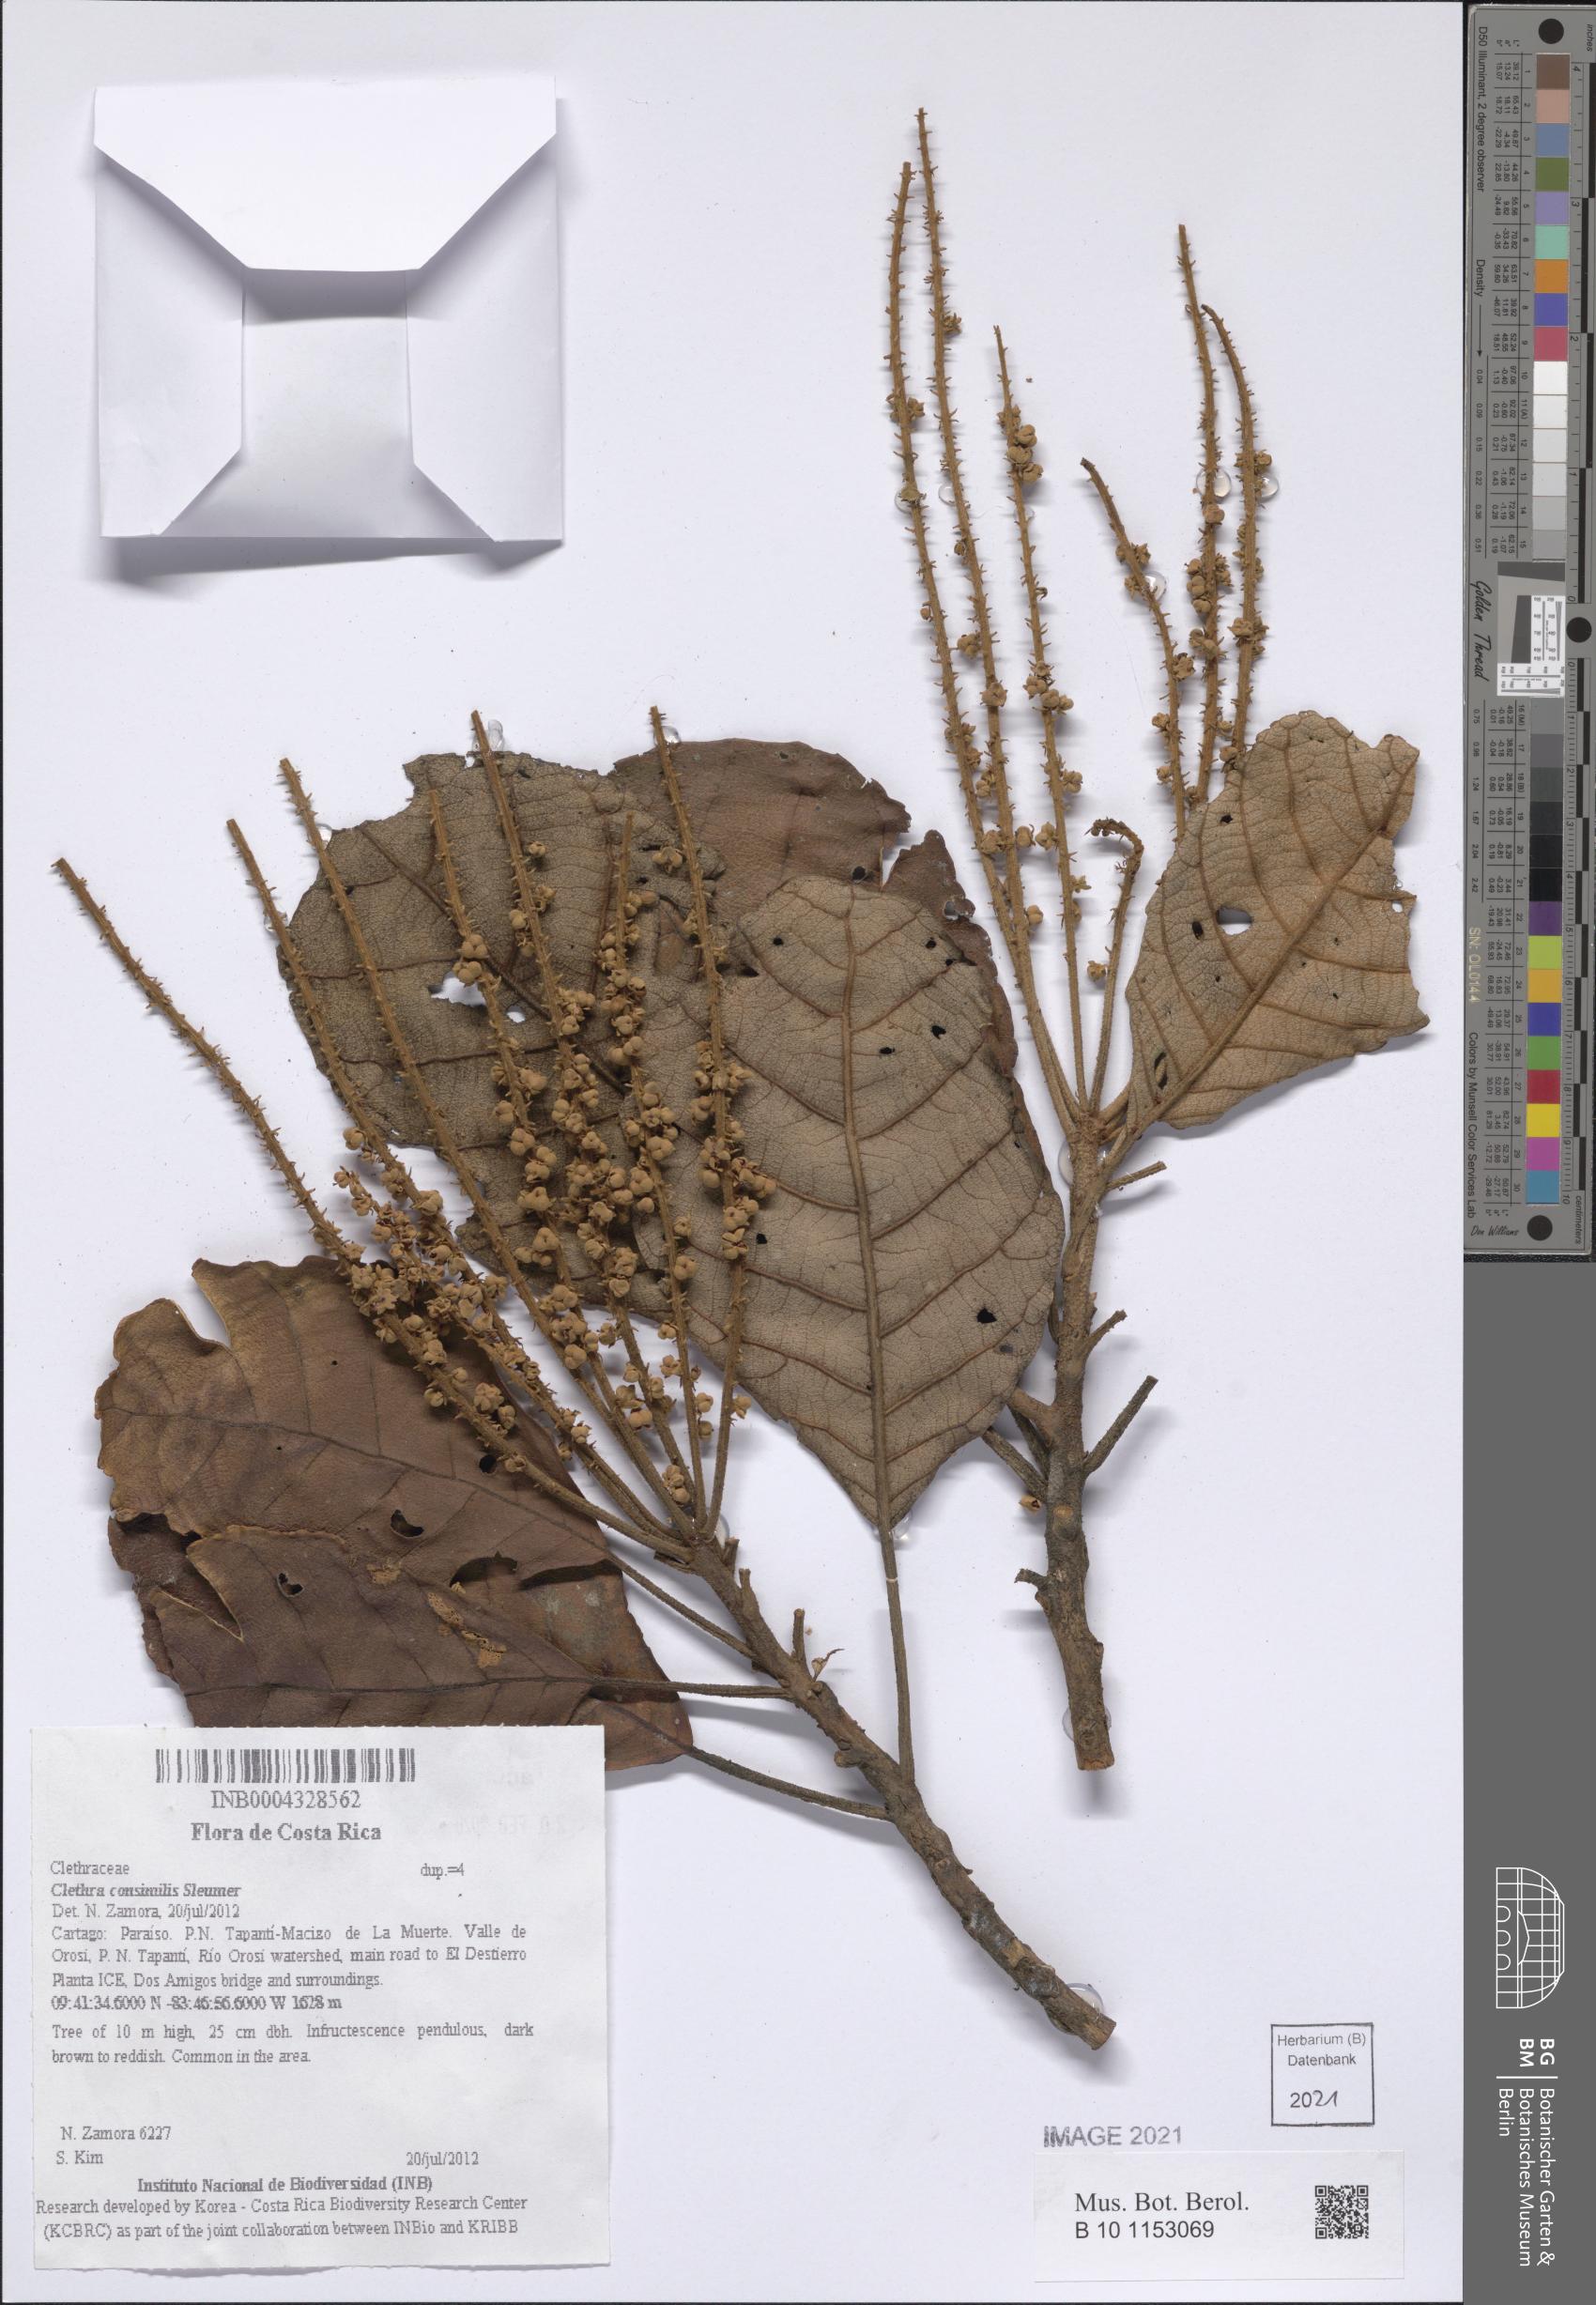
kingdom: Plantae
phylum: Tracheophyta
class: Magnoliopsida
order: Ericales
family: Clethraceae
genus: Clethra
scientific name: Clethra consimilis
